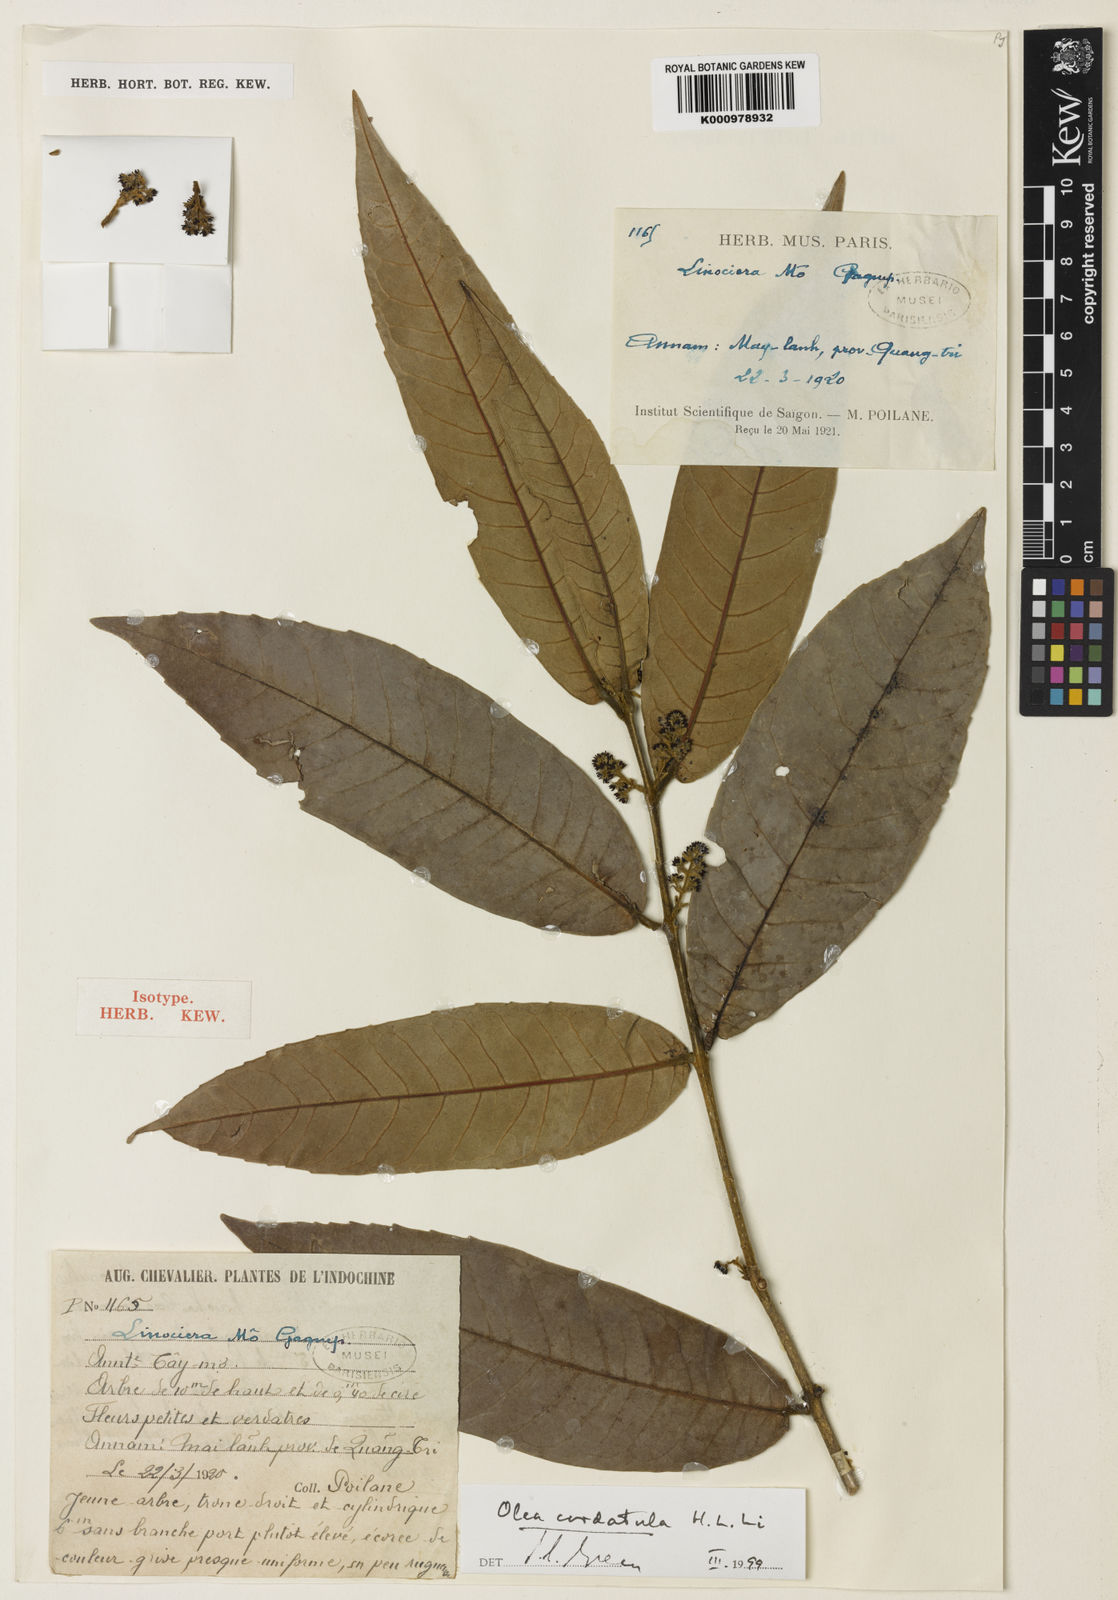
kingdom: Plantae
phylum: Tracheophyta
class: Magnoliopsida
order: Lamiales
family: Oleaceae
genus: Tetrapilus
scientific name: Tetrapilus cordatulus
